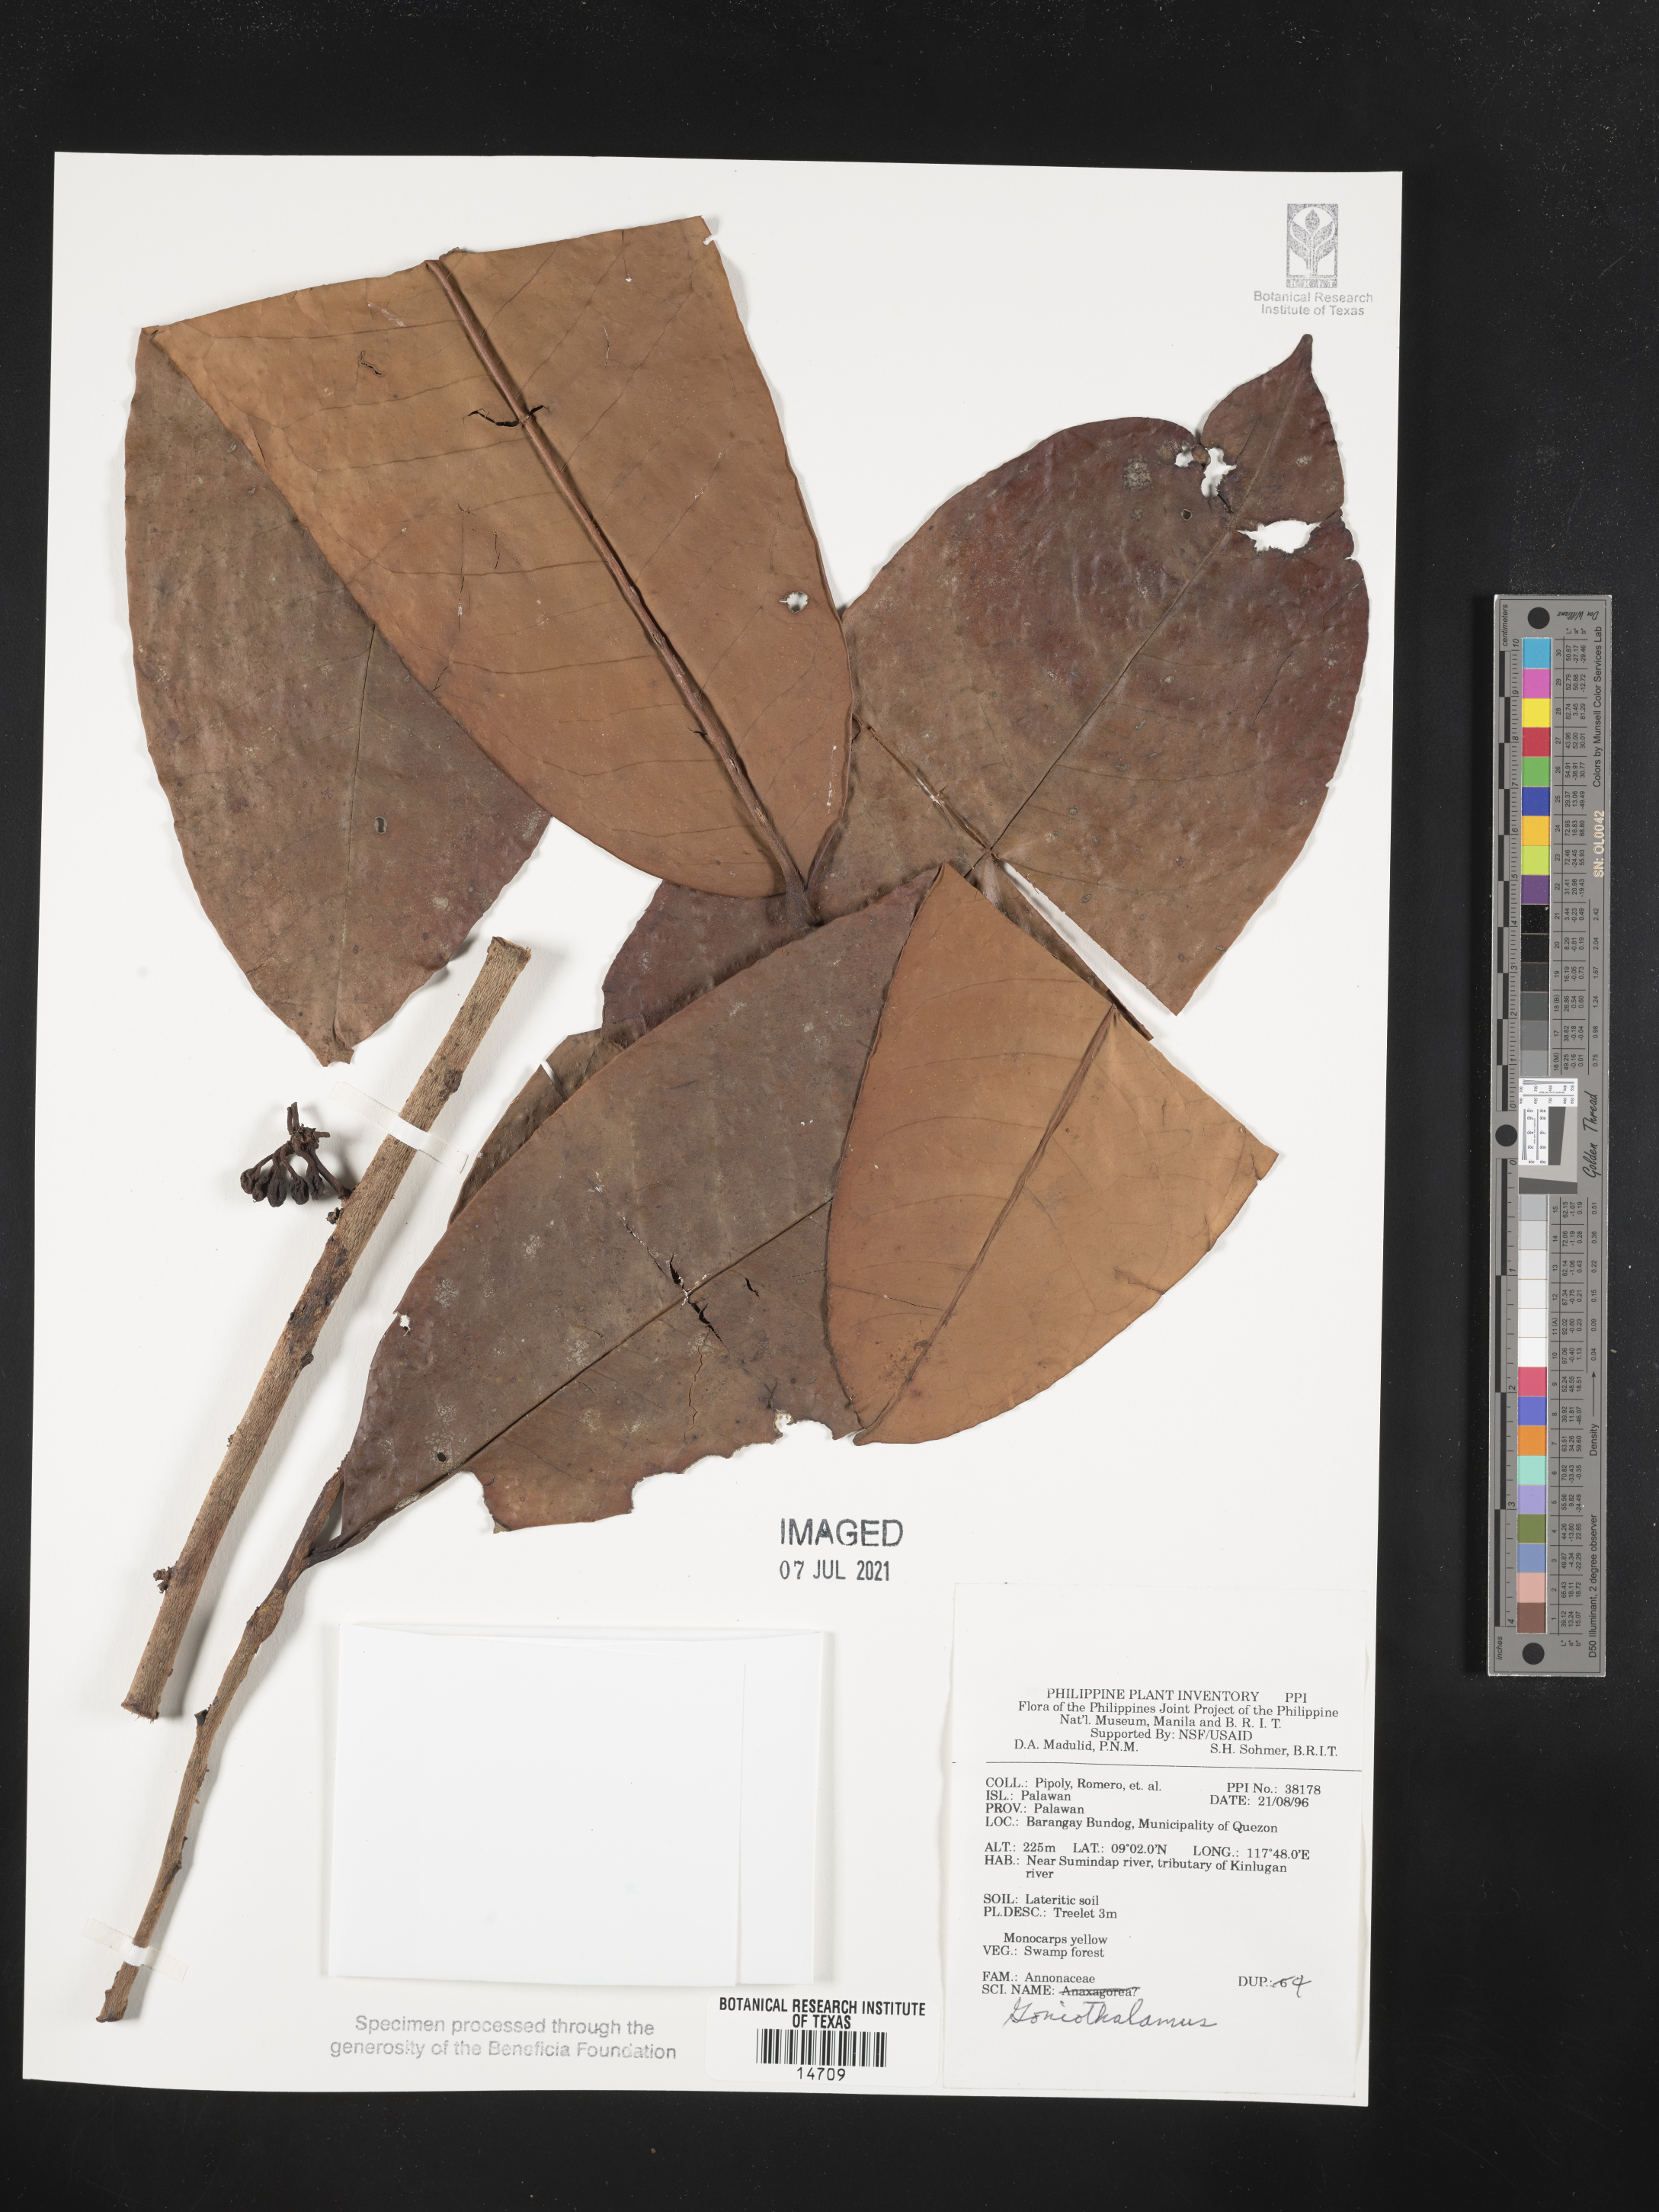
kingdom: Plantae
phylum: Tracheophyta
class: Magnoliopsida
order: Magnoliales
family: Annonaceae
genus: Goniothalamus
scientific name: Goniothalamus
